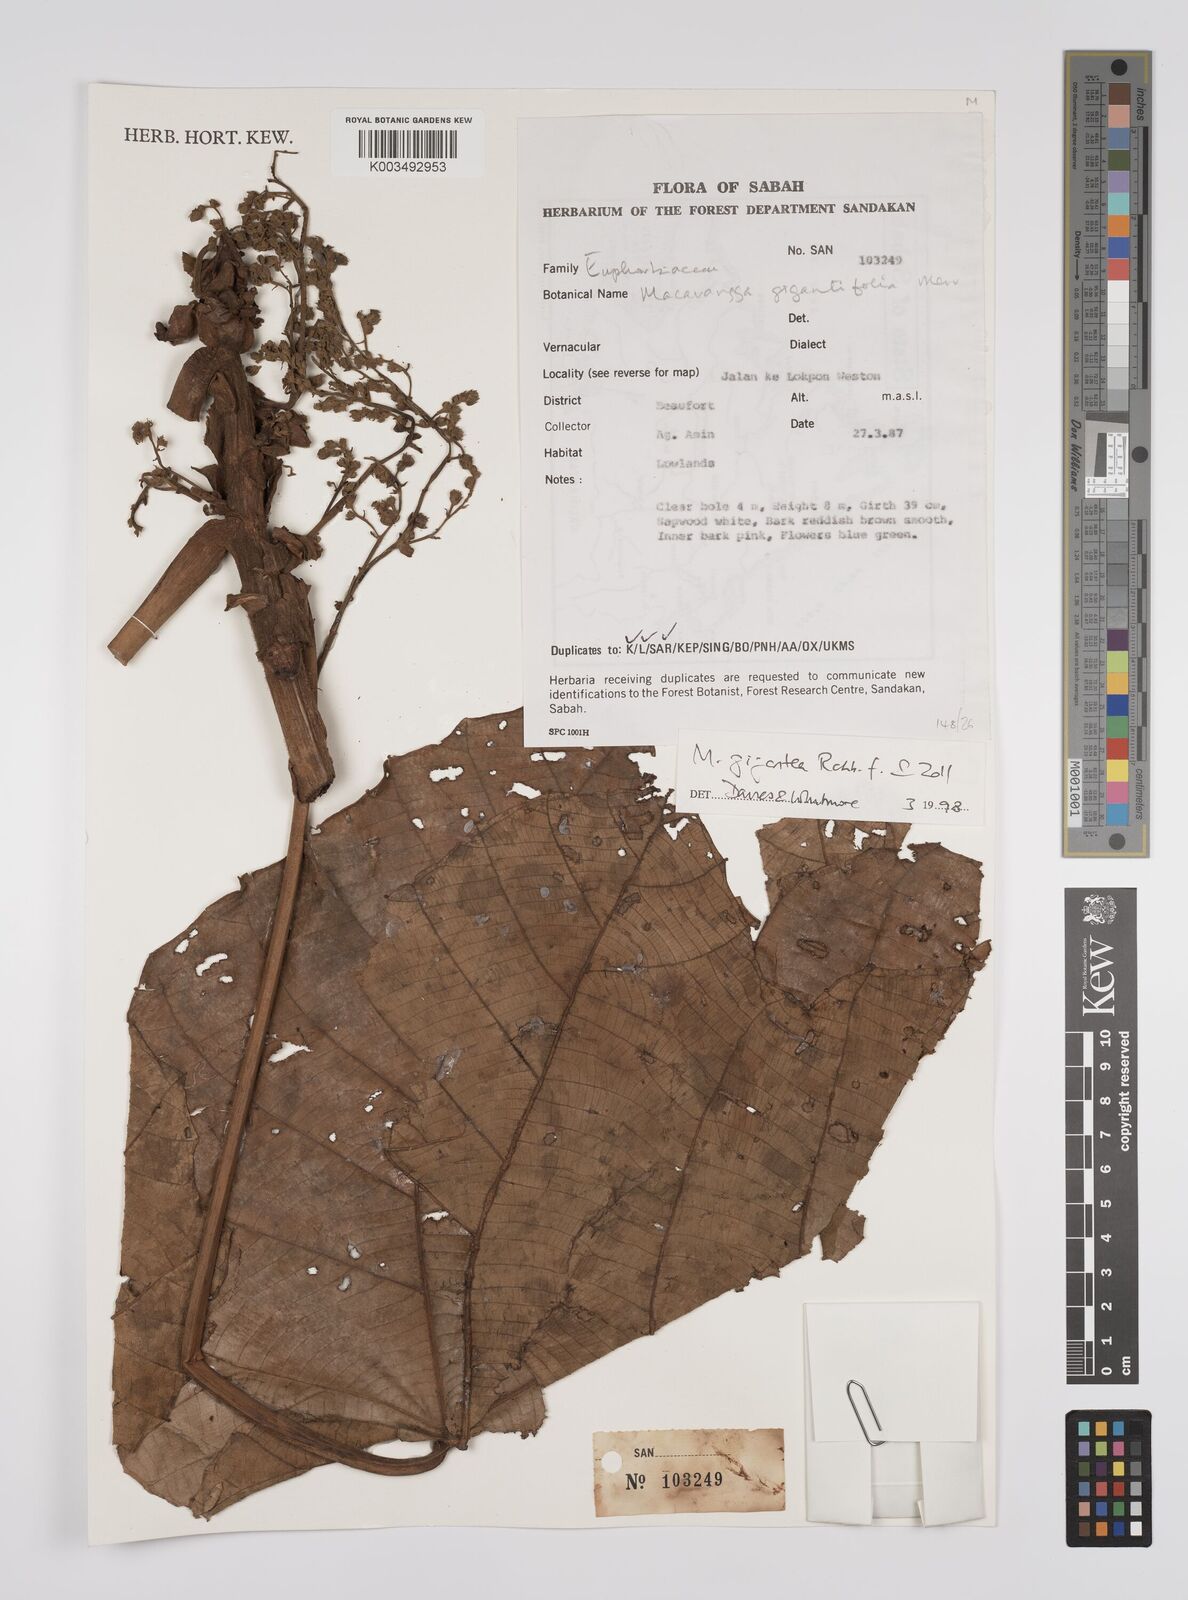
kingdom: Plantae
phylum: Tracheophyta
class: Magnoliopsida
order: Malpighiales
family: Euphorbiaceae
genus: Macaranga
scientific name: Macaranga gigantea
